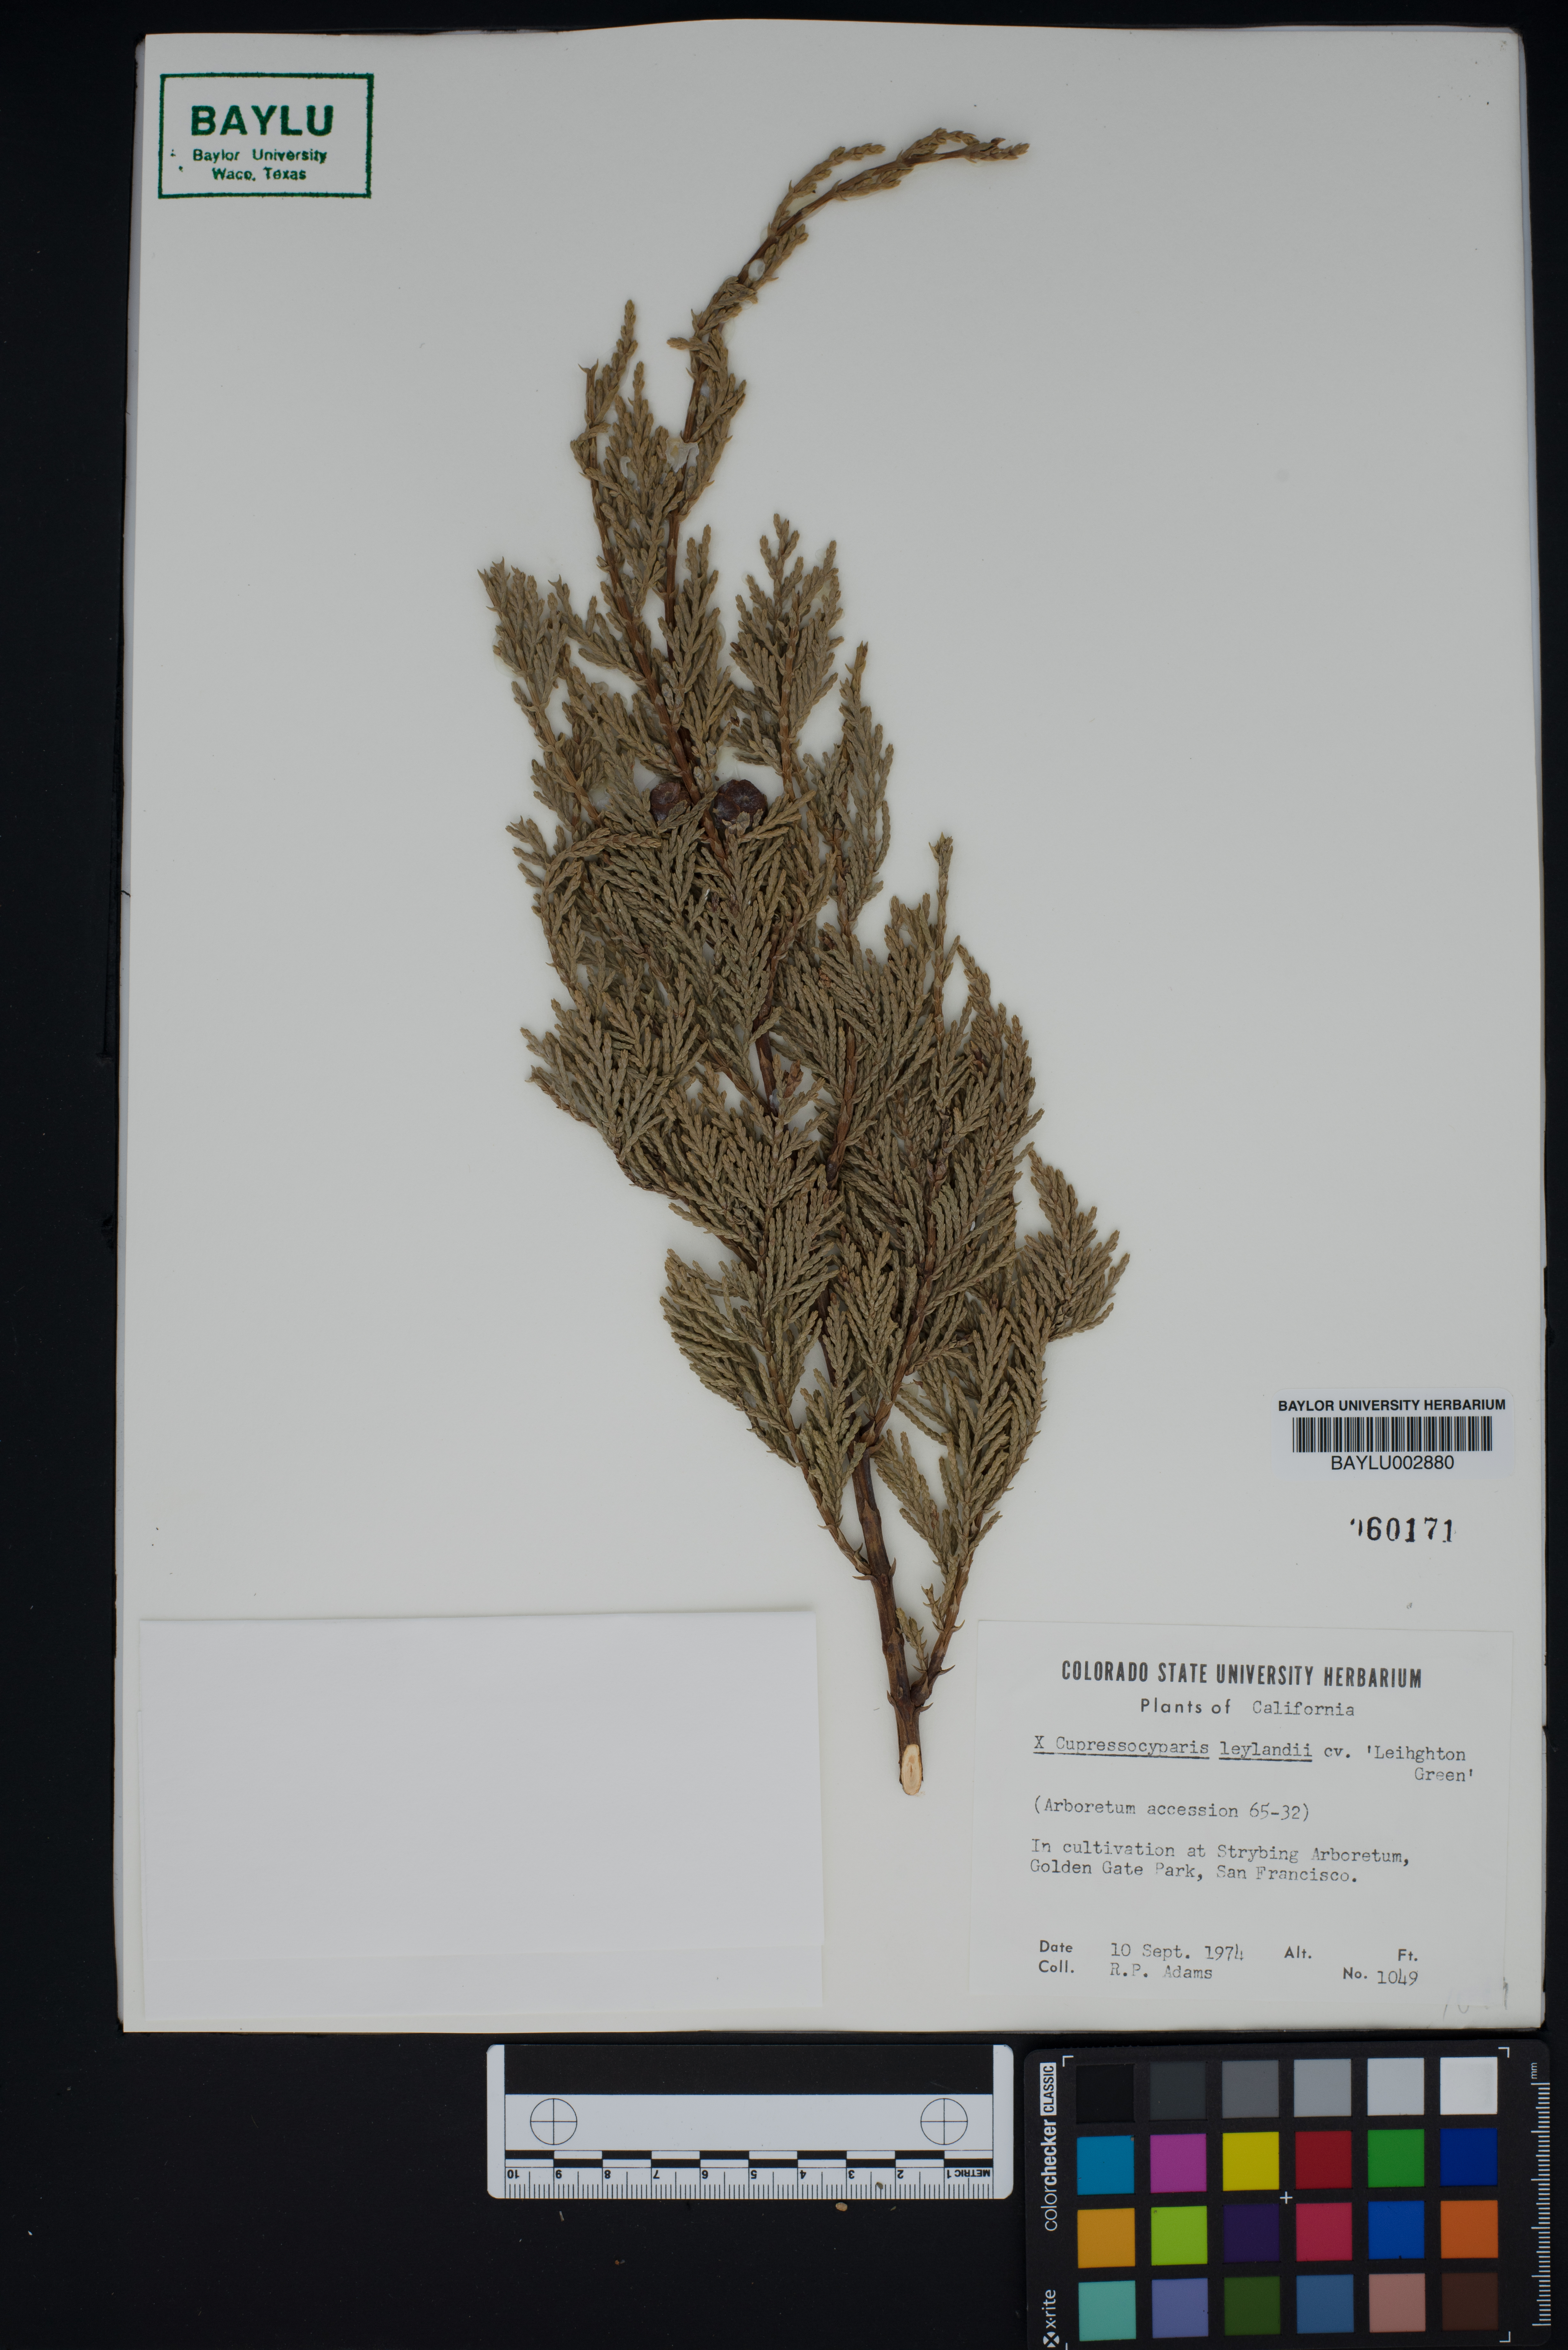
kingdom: Plantae
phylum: Tracheophyta
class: Pinopsida
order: Pinales
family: Cupressaceae
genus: Hesperotropsis
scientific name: Hesperotropsis leylandii
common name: Leyland cypress
